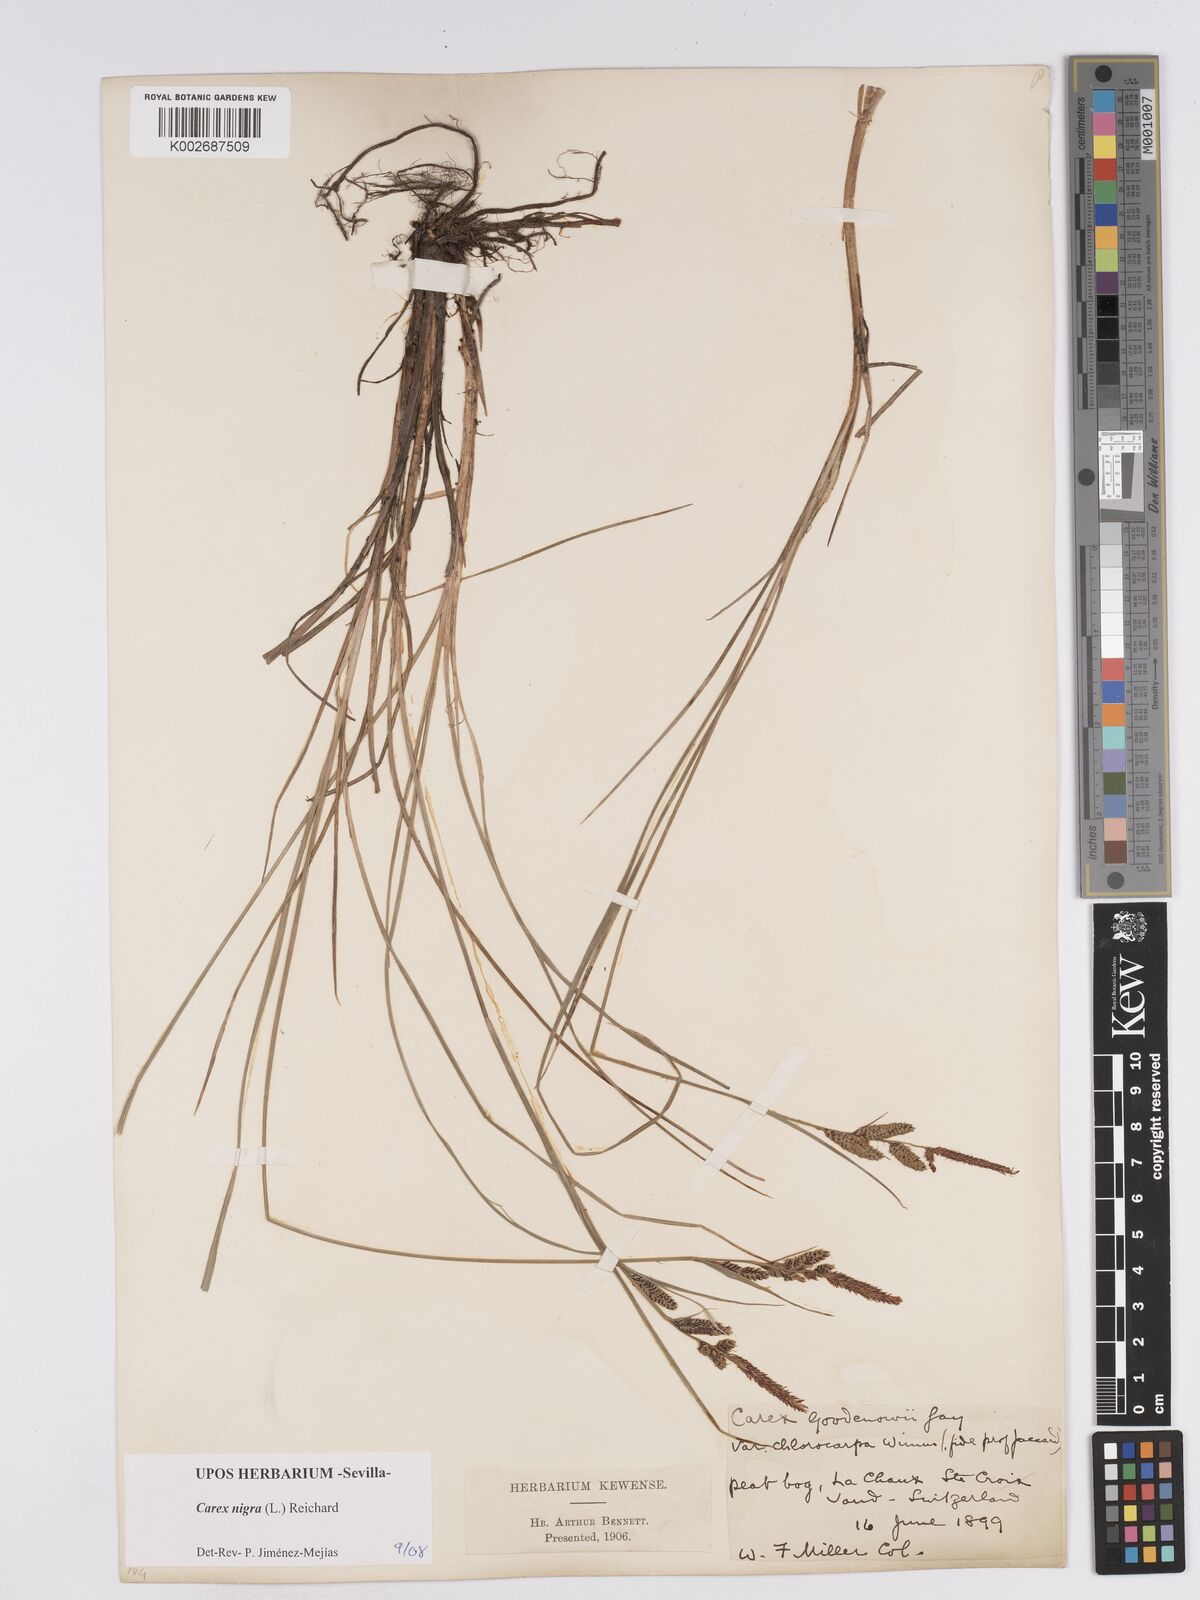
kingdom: Plantae
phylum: Tracheophyta
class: Liliopsida
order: Poales
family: Cyperaceae
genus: Carex
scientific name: Carex nigra
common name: Common sedge
